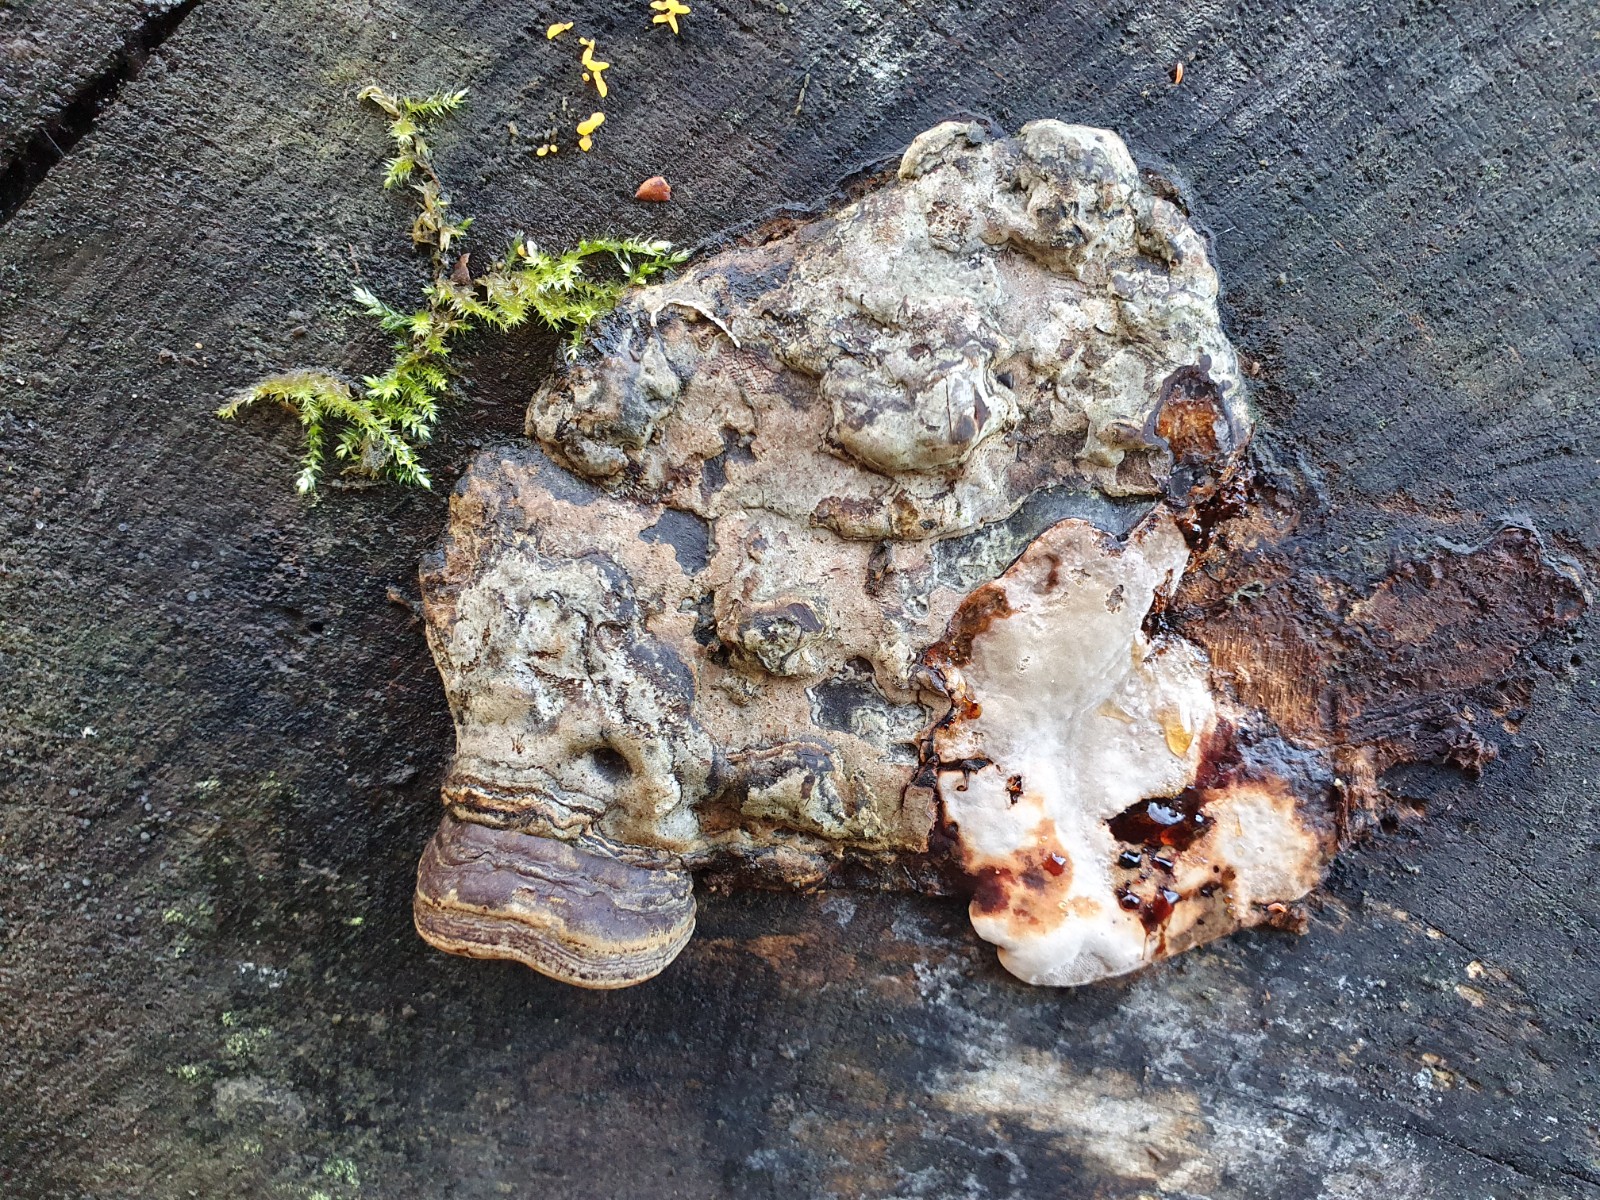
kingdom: Fungi
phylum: Basidiomycota
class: Agaricomycetes
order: Polyporales
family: Polyporaceae
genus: Ganoderma
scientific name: Ganoderma pfeifferi
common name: kobberrød lakporesvamp
